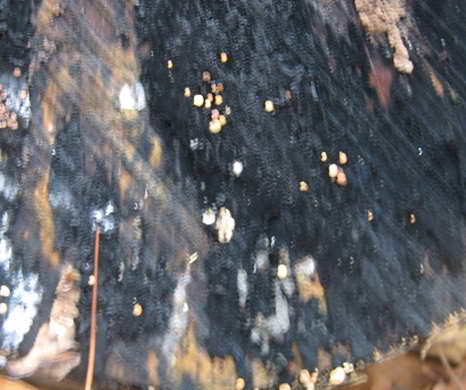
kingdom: Fungi
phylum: Ascomycota
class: Leotiomycetes
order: Helotiales
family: Helotiaceae
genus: Bispora
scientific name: Bispora pallescens
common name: måtte-snitskive
